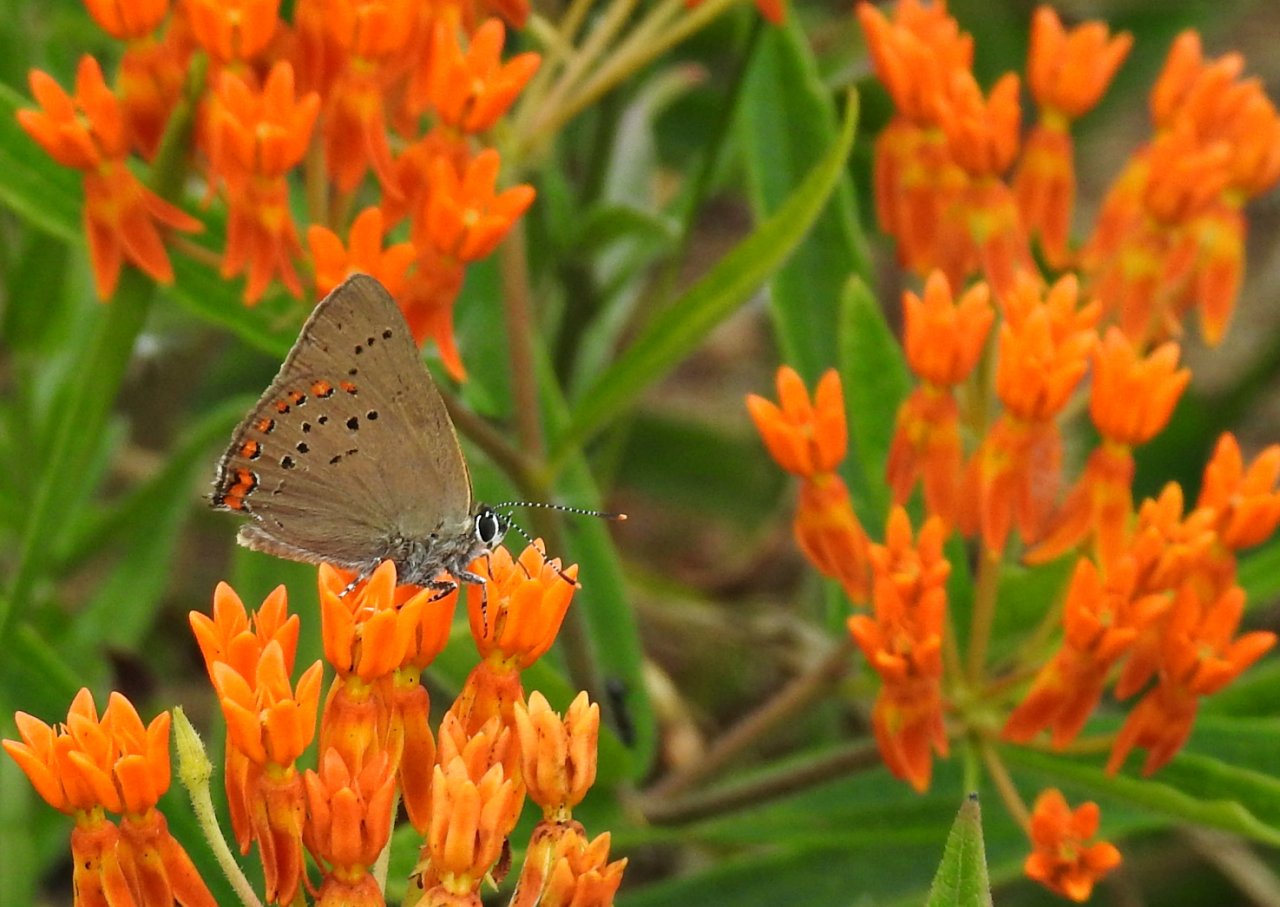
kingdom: Animalia
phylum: Arthropoda
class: Insecta
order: Lepidoptera
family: Lycaenidae
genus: Harkenclenus
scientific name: Harkenclenus titus
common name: Coral Hairstreak
